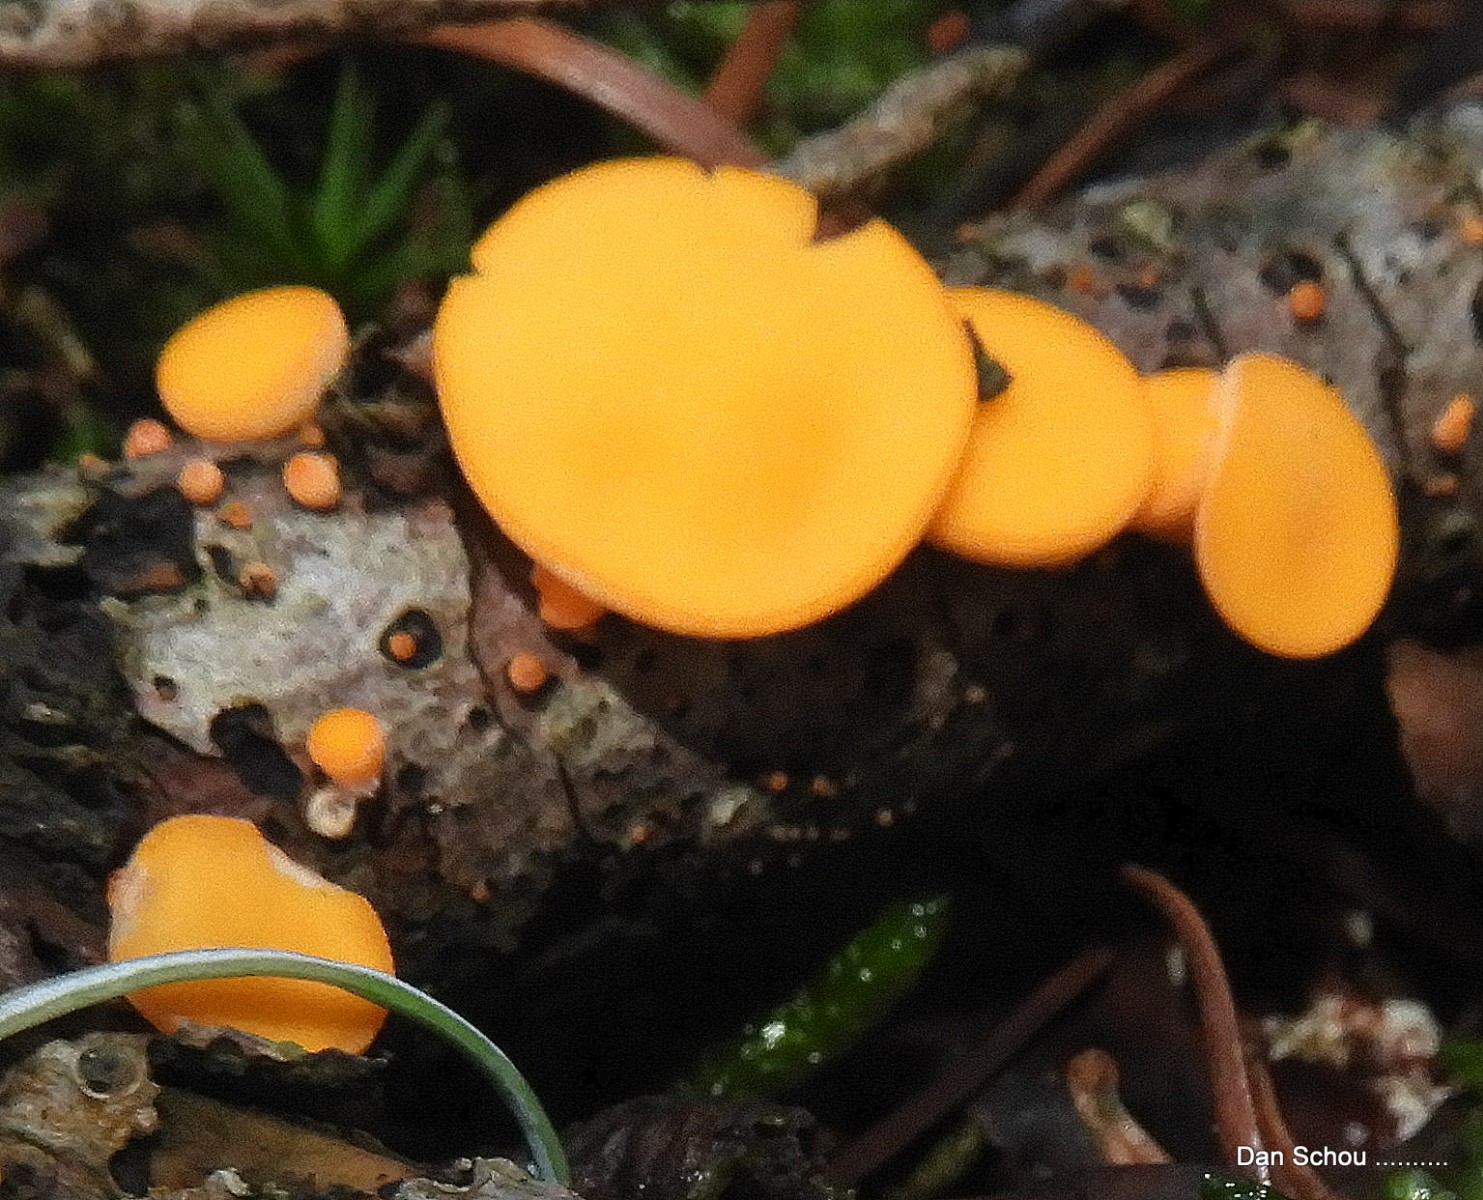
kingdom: Fungi
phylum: Ascomycota
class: Pezizomycetes
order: Pezizales
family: Sarcoscyphaceae
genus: Pithya
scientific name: Pithya vulgaris
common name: stor dukatbæger
